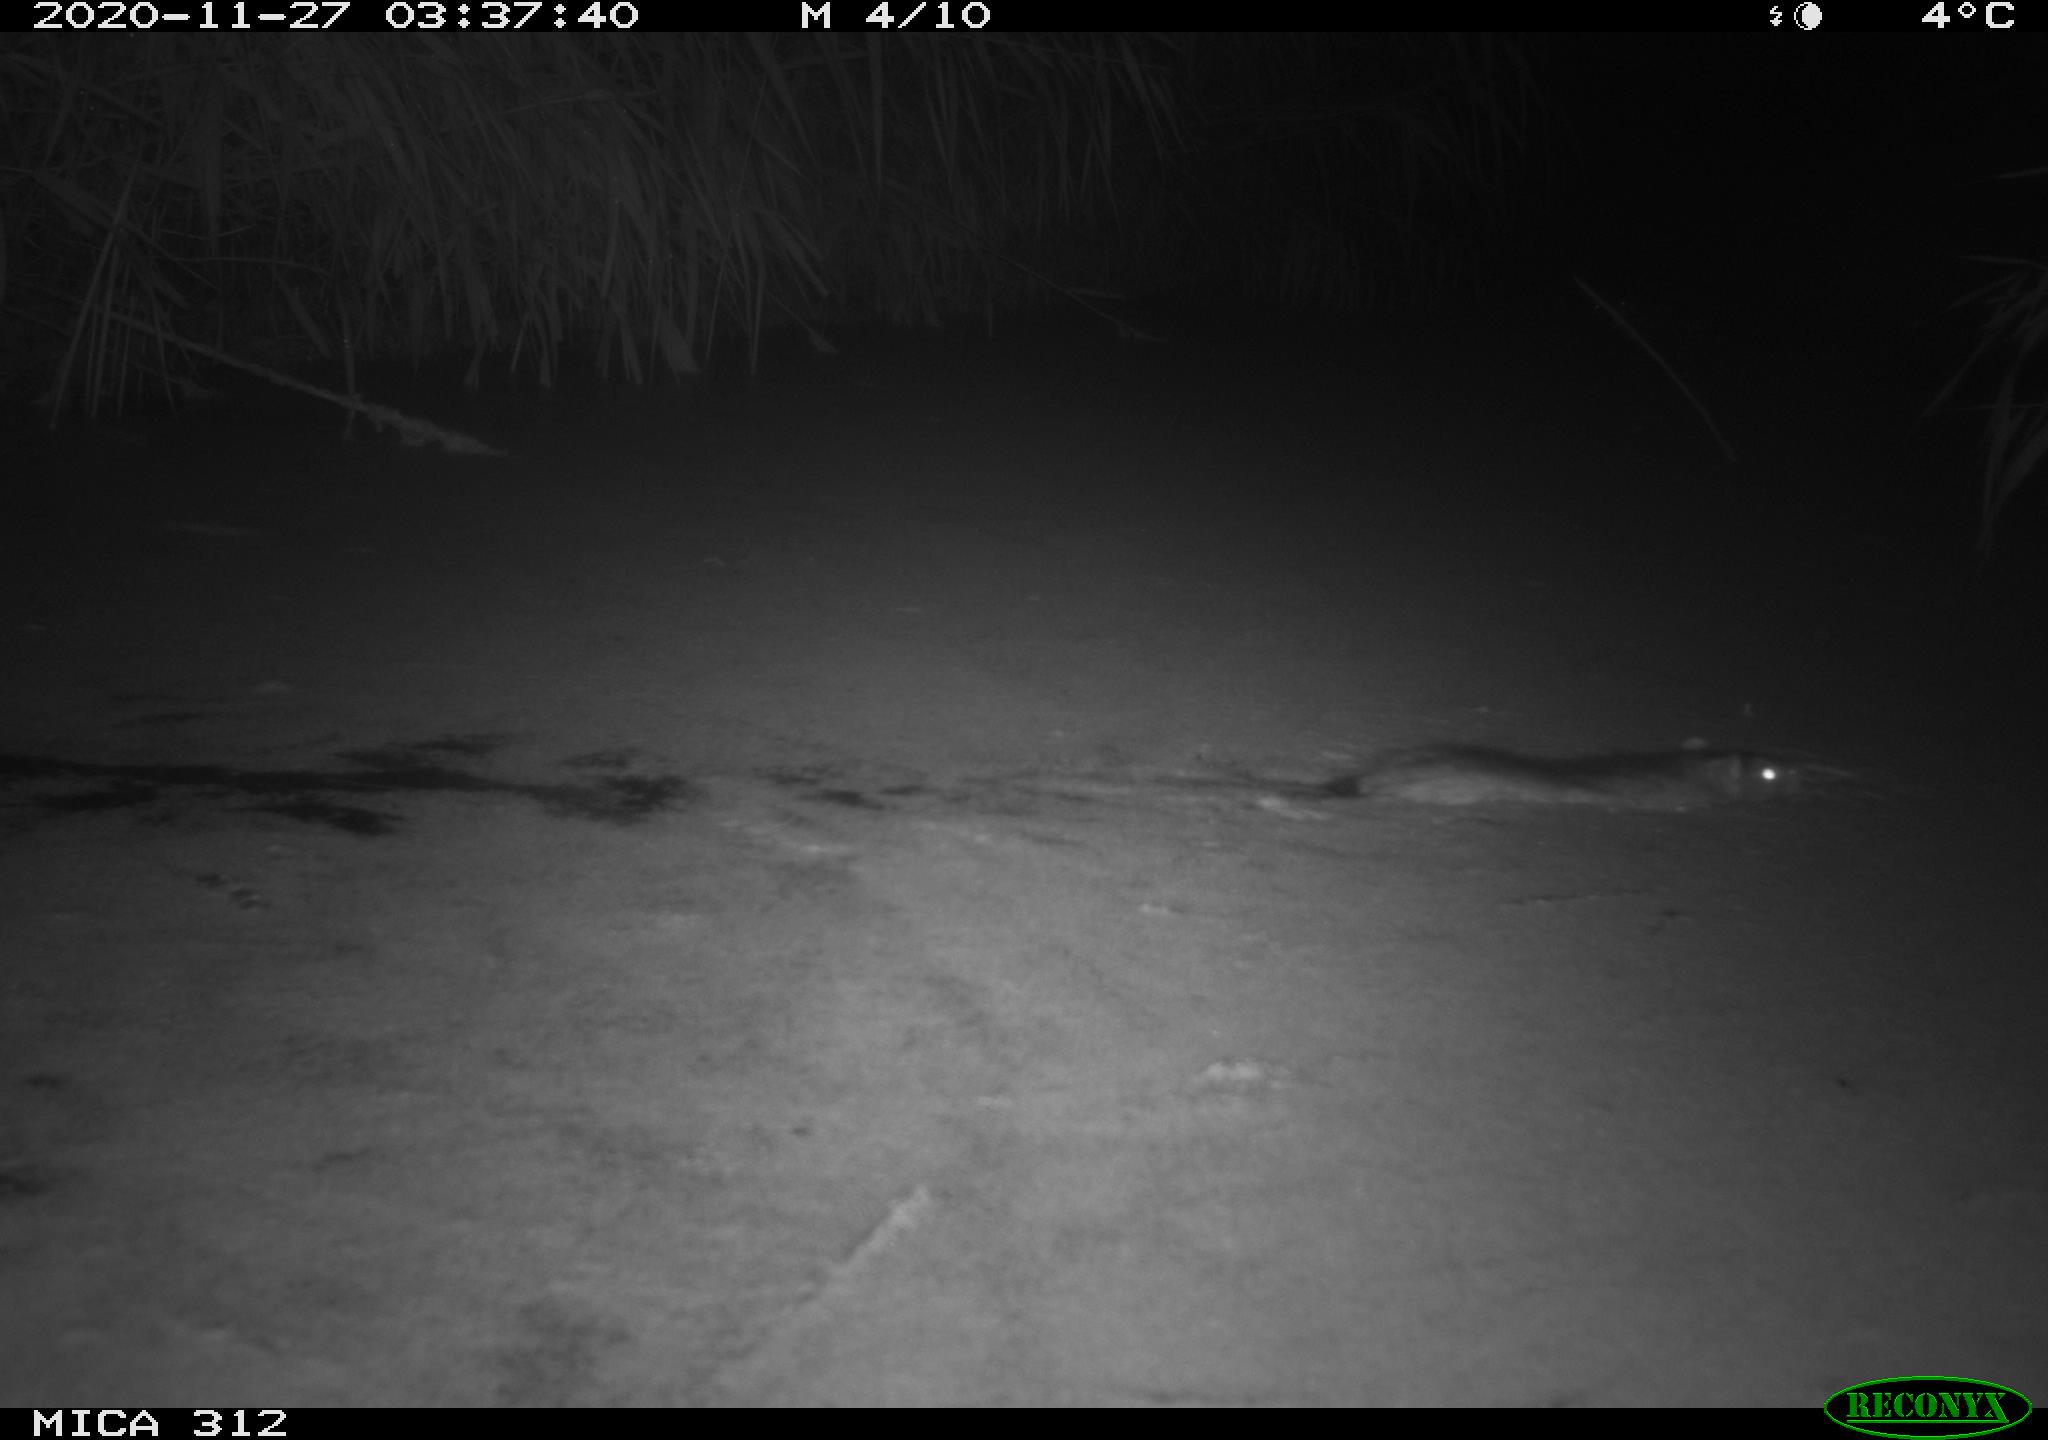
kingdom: Animalia
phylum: Chordata
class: Mammalia
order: Rodentia
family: Muridae
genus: Rattus
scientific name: Rattus norvegicus
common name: Brown rat
